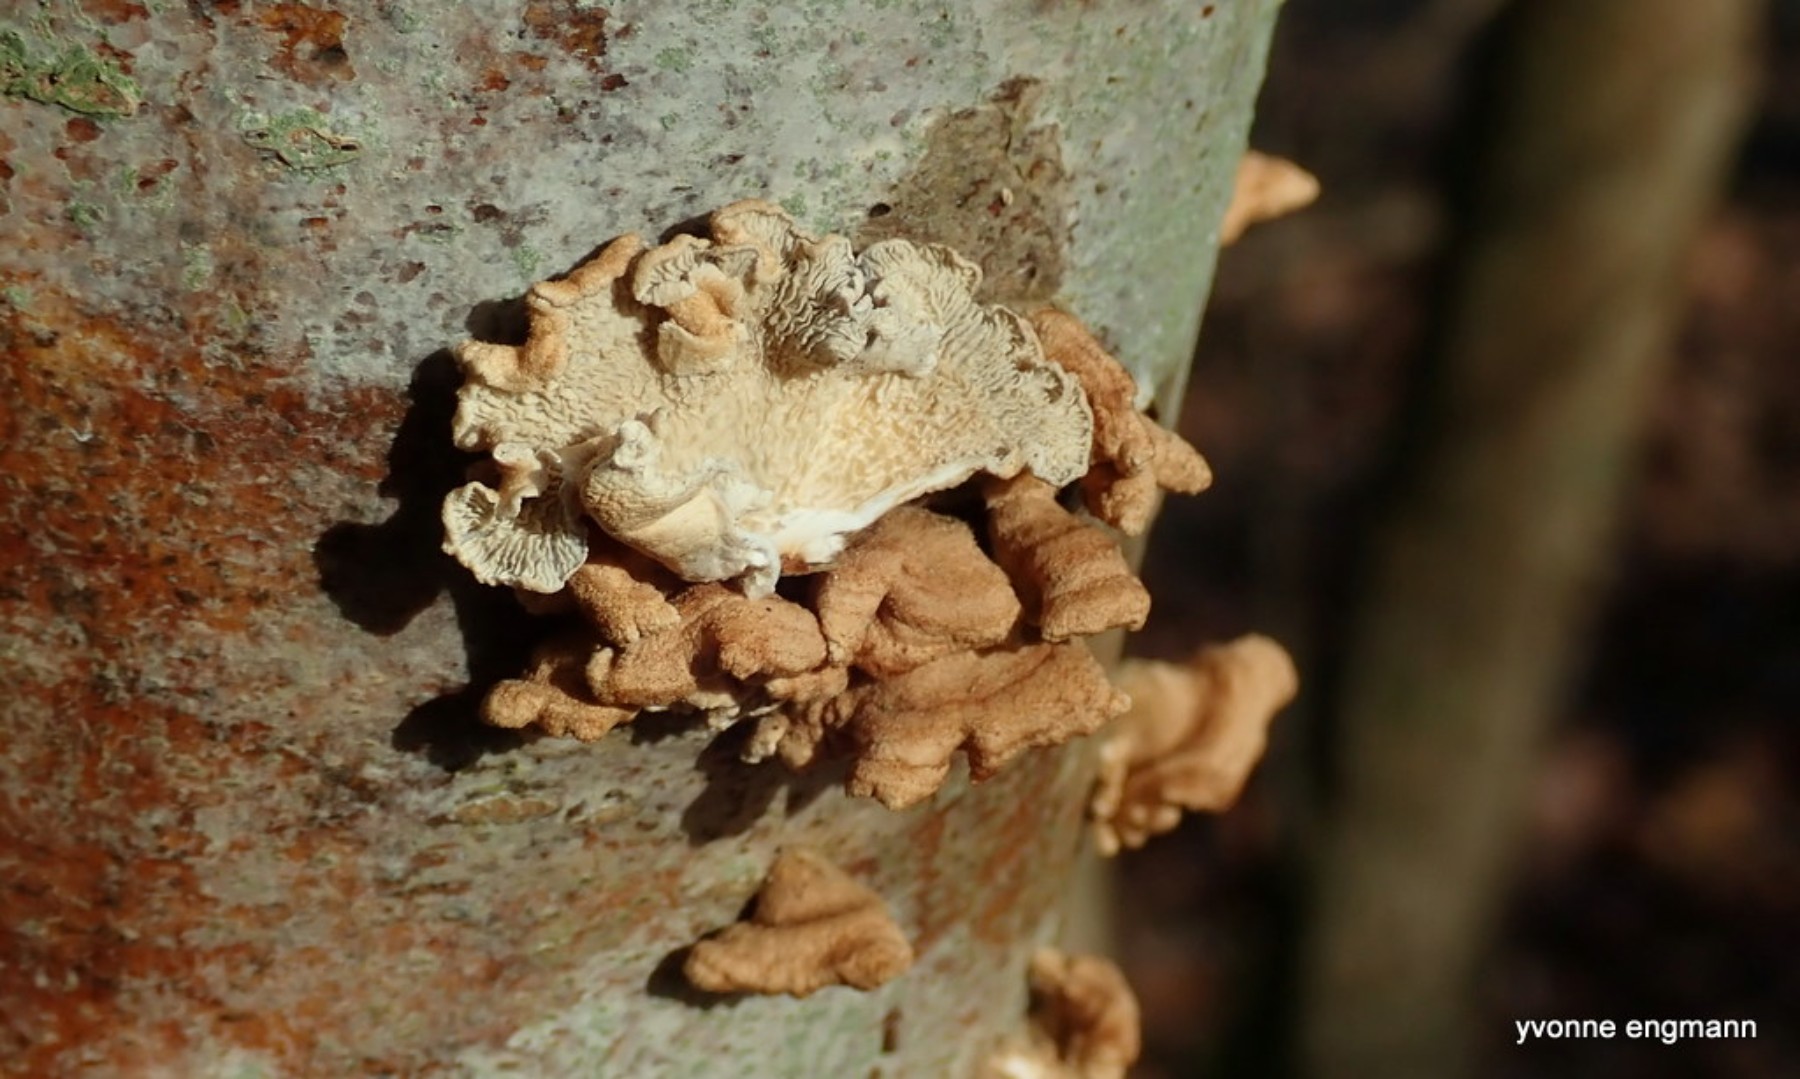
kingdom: Fungi
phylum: Basidiomycota
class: Agaricomycetes
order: Amylocorticiales
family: Amylocorticiaceae
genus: Plicaturopsis
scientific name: Plicaturopsis crispa
